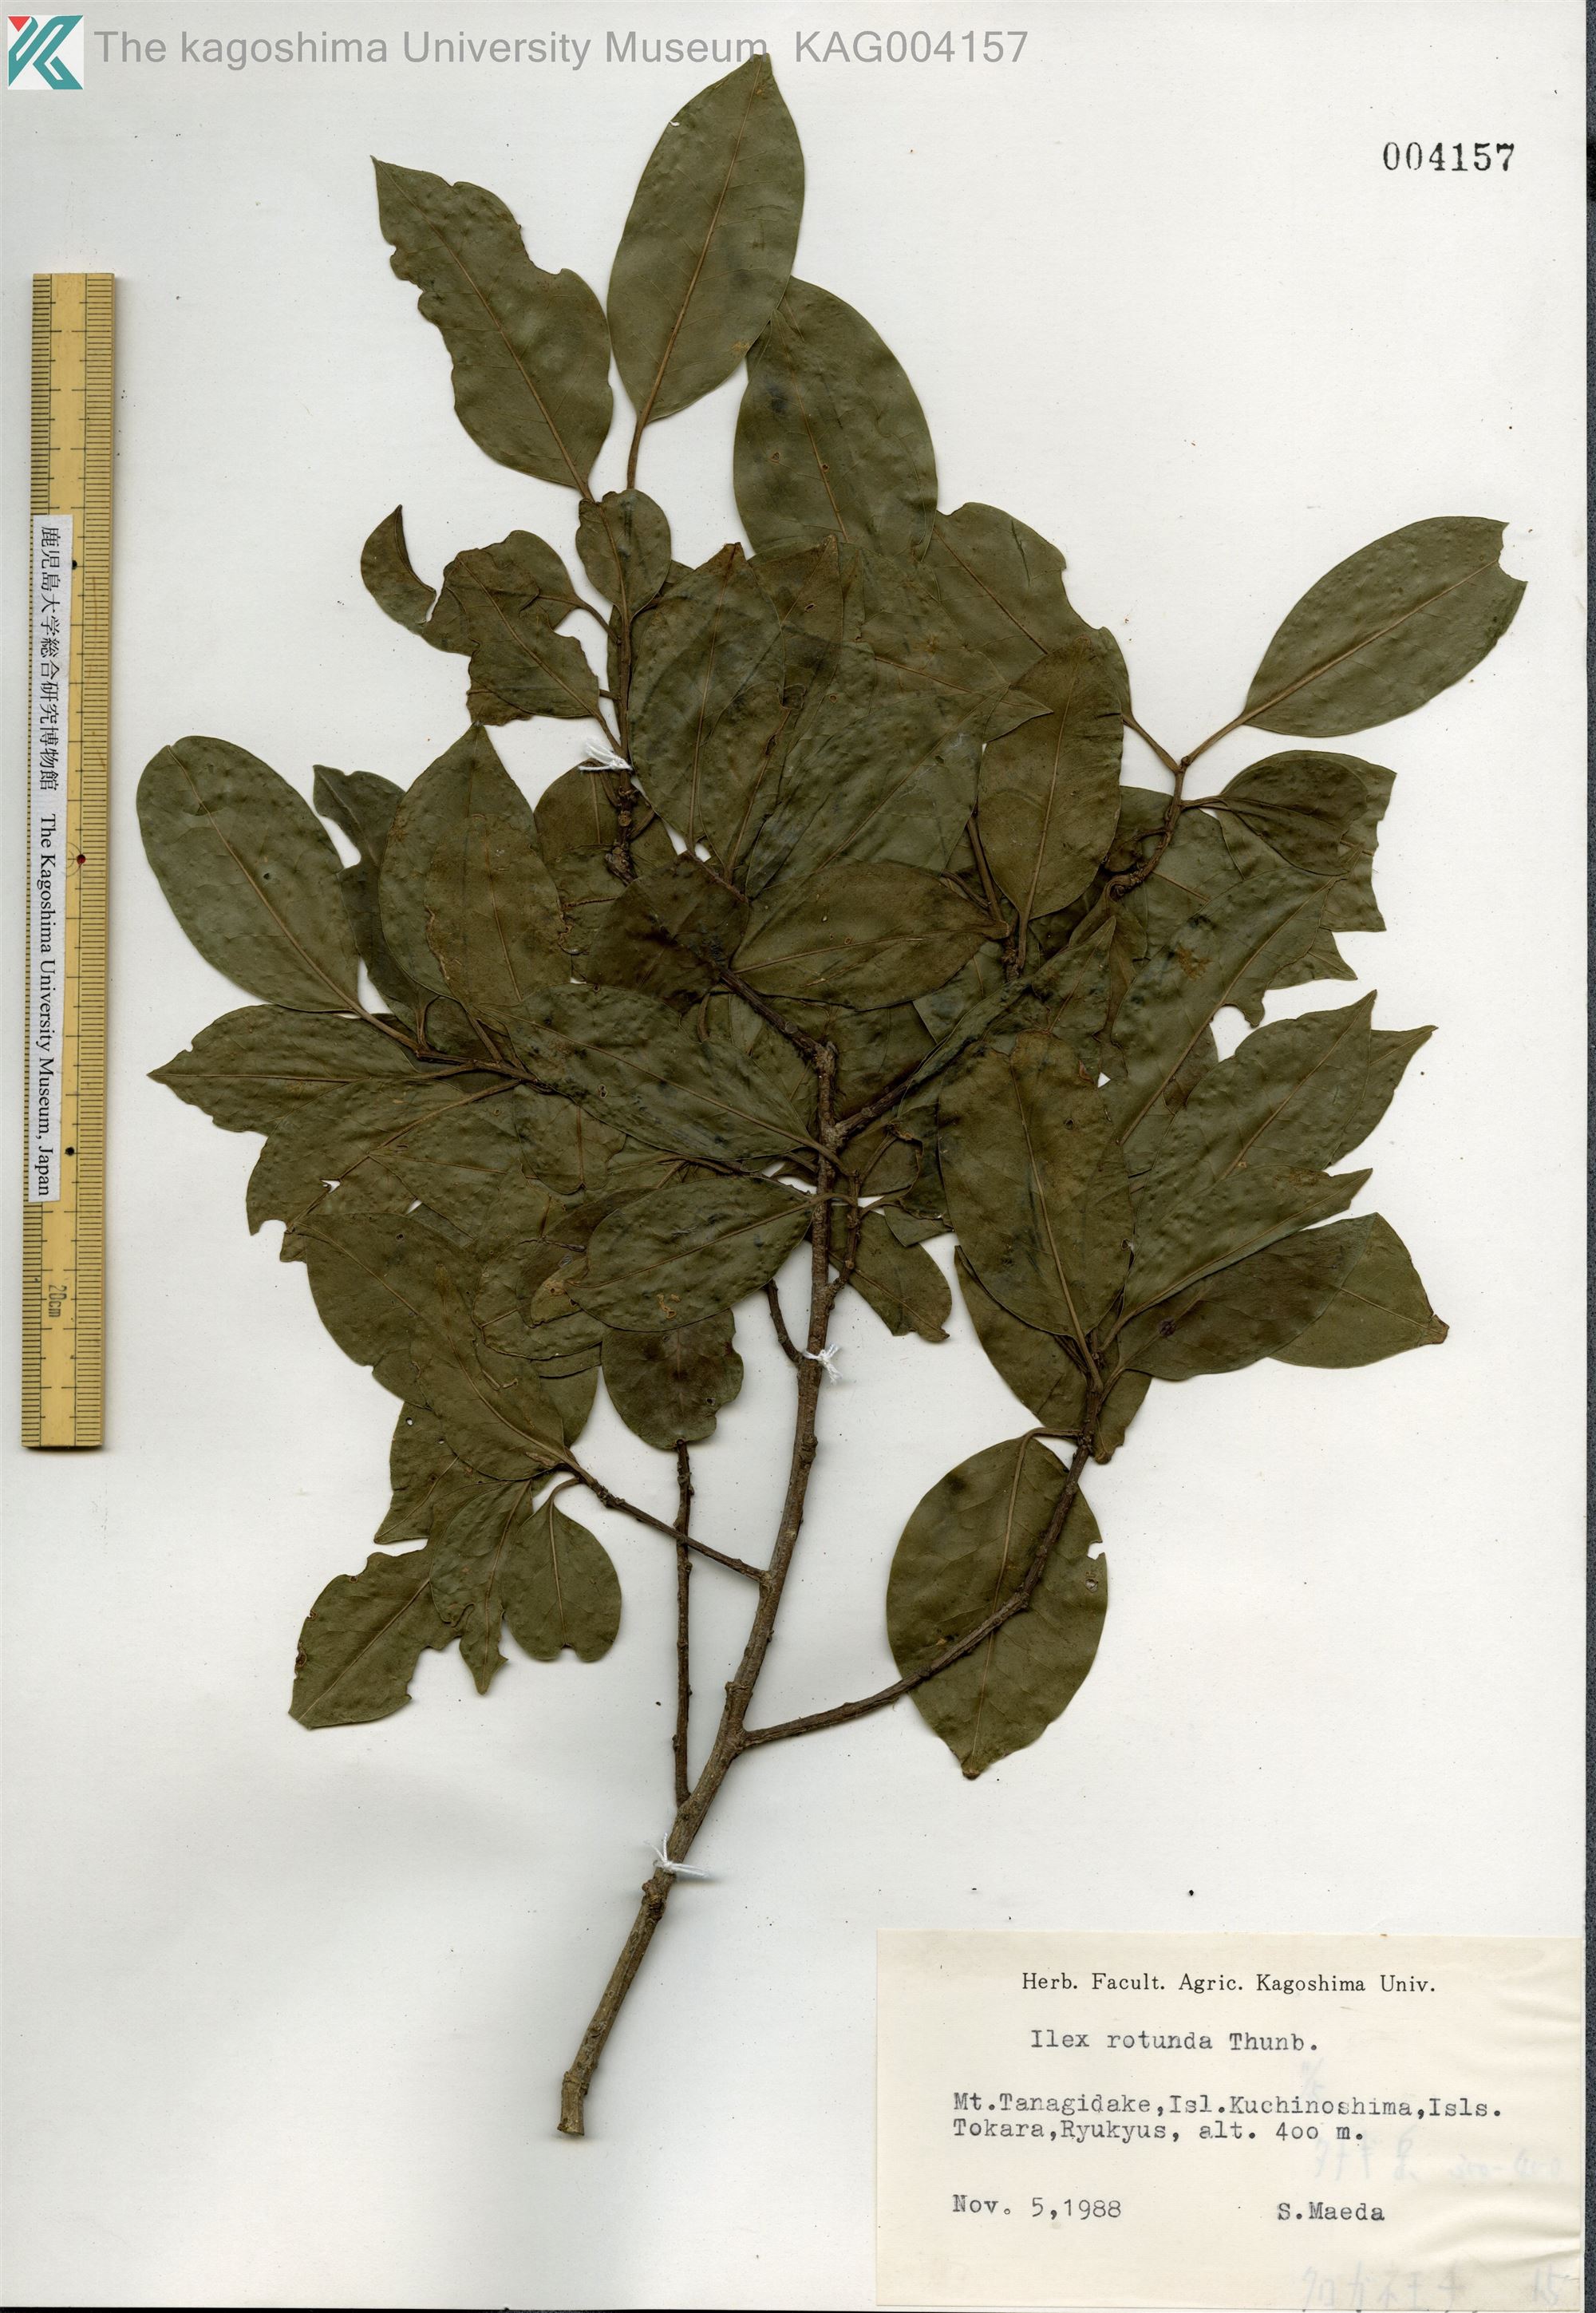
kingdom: Plantae
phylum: Tracheophyta
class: Magnoliopsida
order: Aquifoliales
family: Aquifoliaceae
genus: Ilex
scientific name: Ilex rotunda
